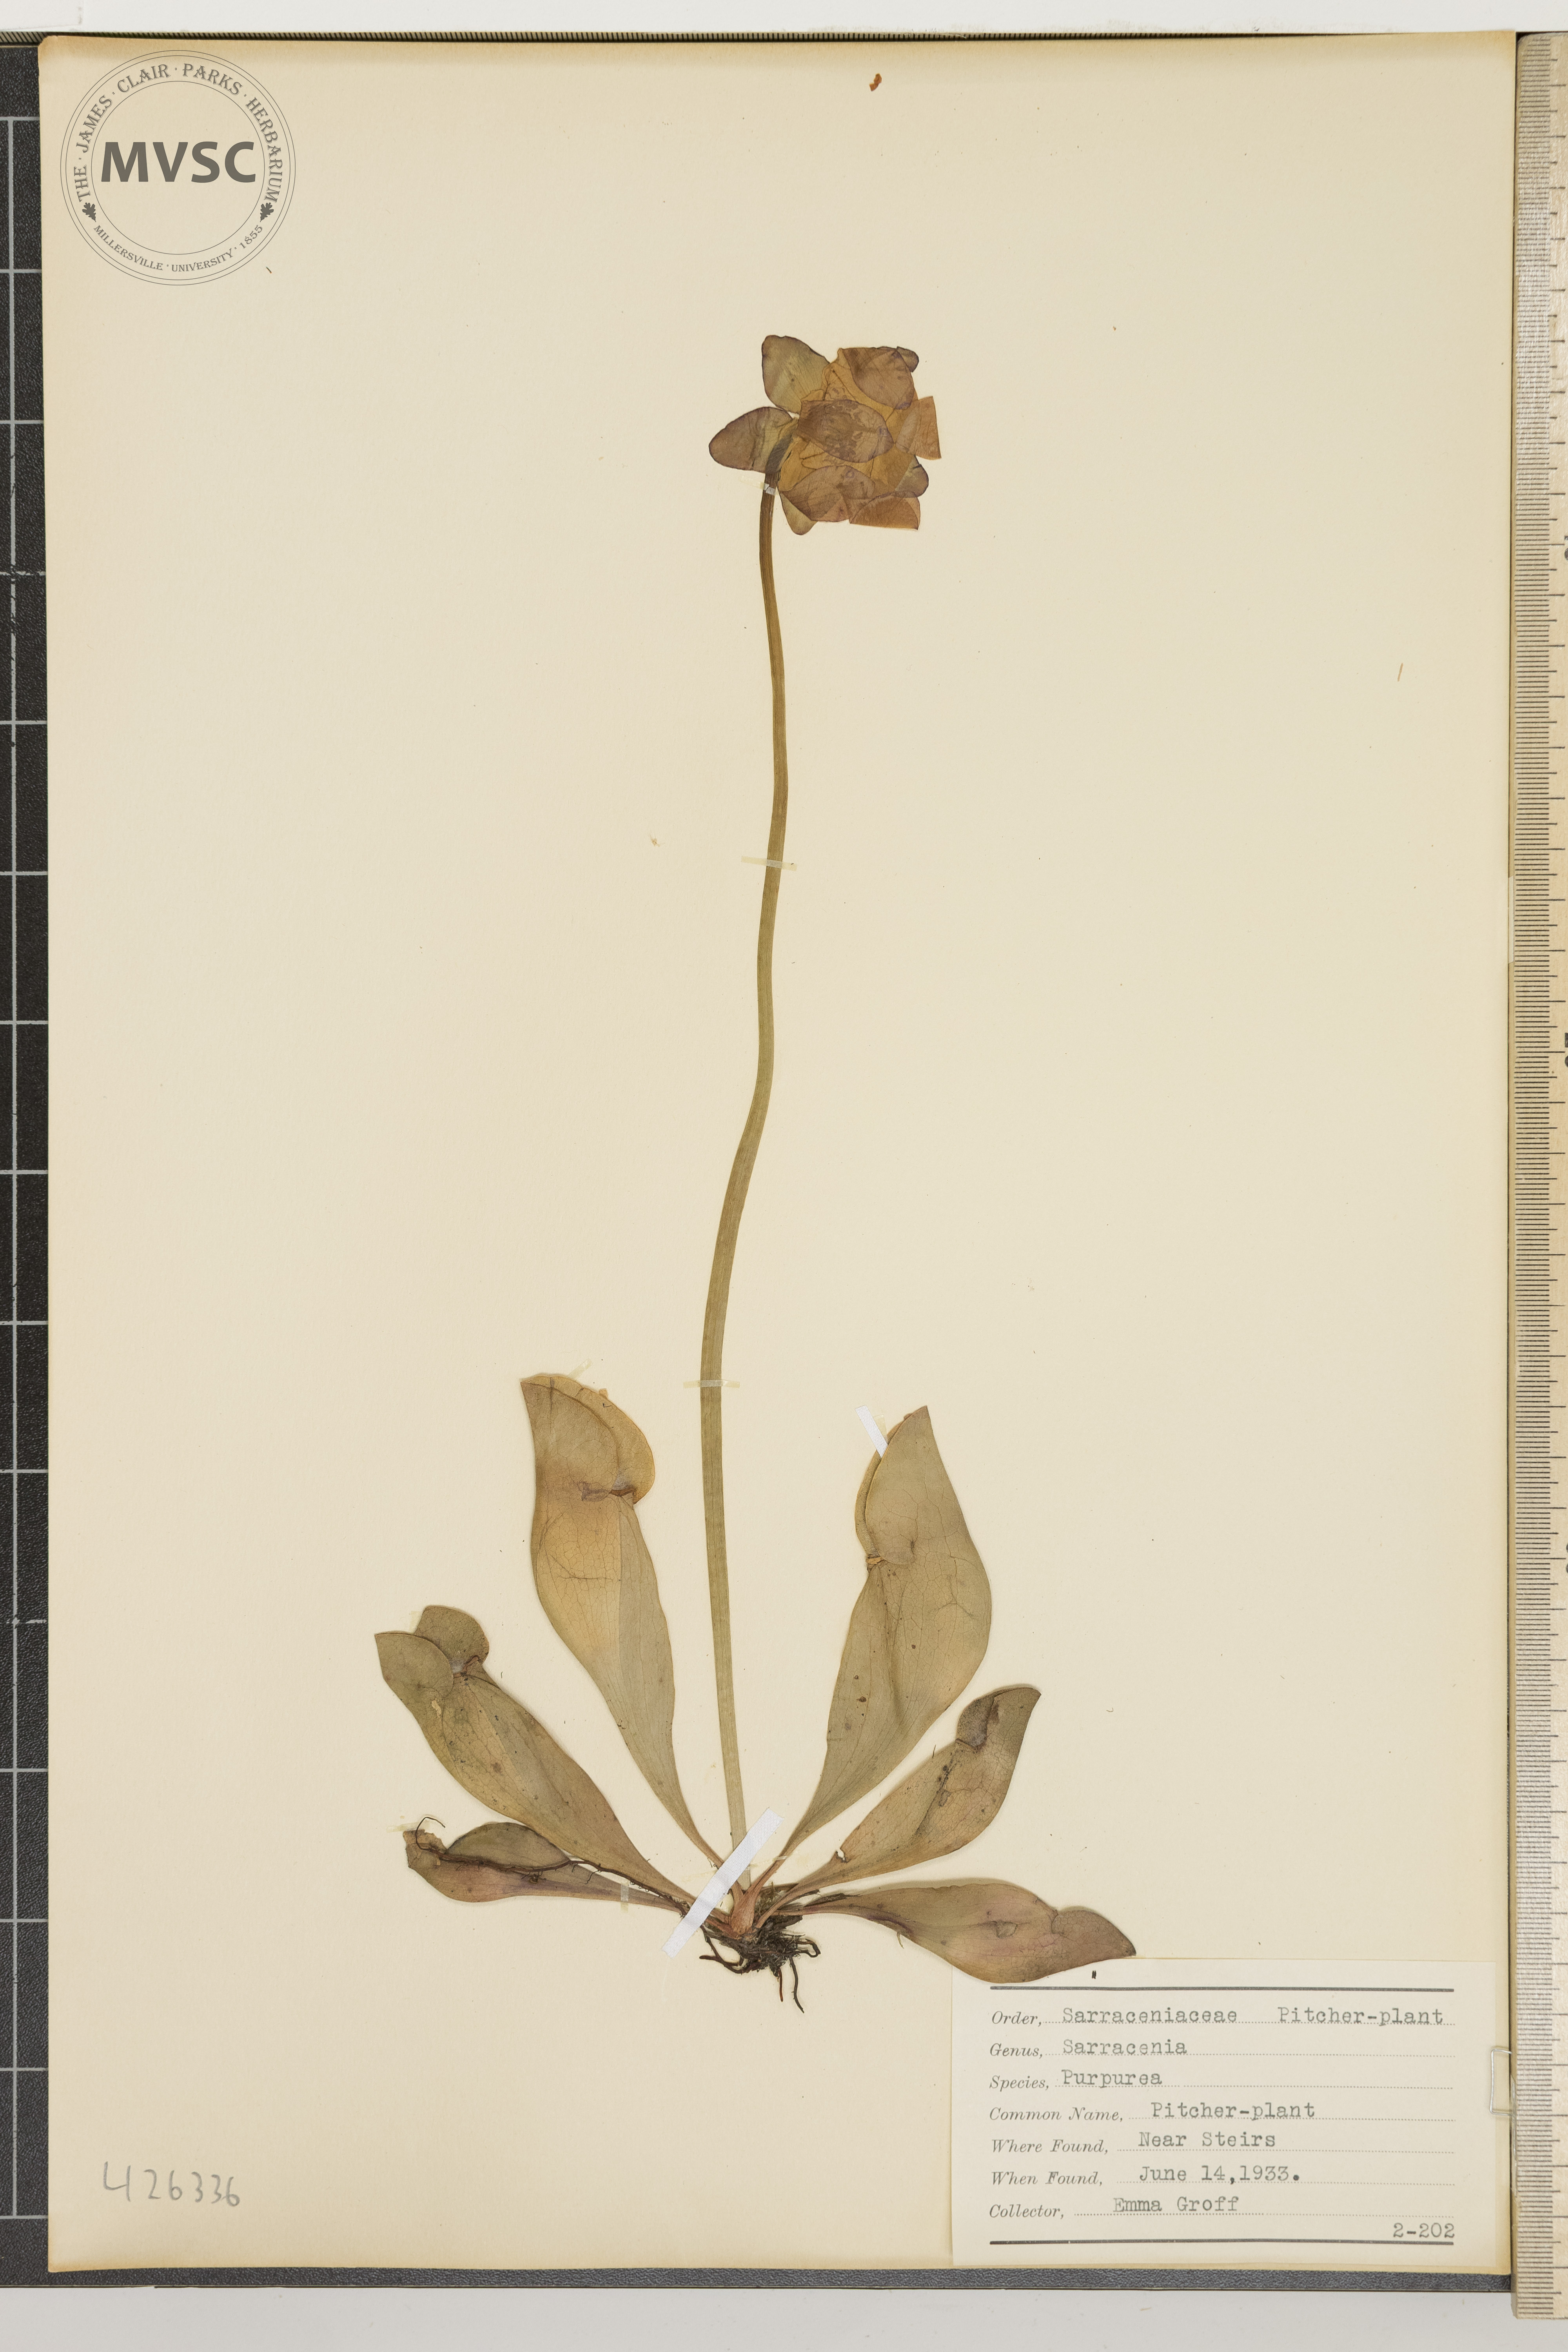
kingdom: Plantae
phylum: Tracheophyta
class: Magnoliopsida
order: Ericales
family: Sarraceniaceae
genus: Sarracenia
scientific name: Sarracenia purpurea
